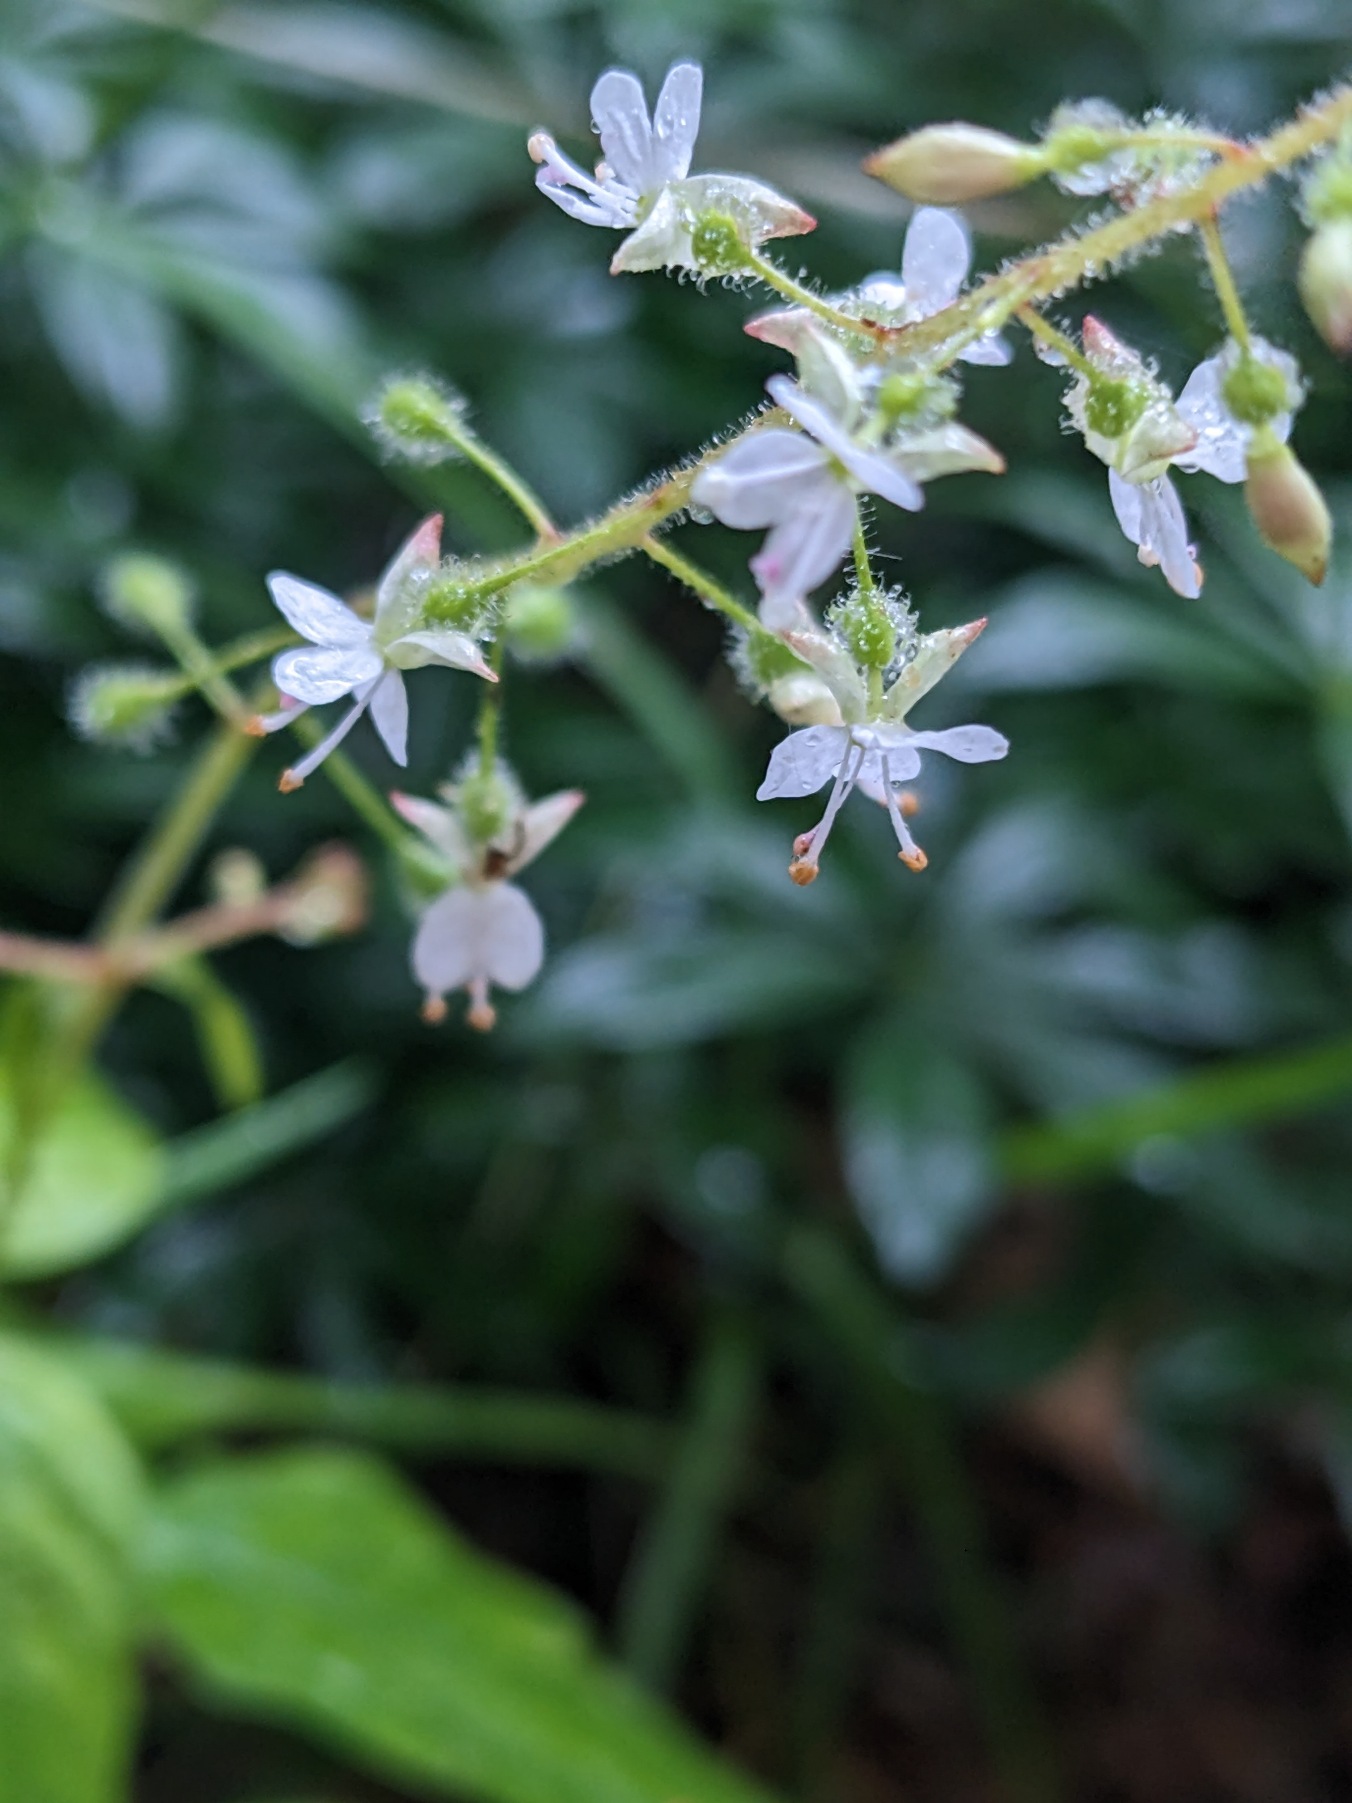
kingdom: Plantae
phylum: Tracheophyta
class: Magnoliopsida
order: Myrtales
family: Onagraceae
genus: Circaea
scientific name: Circaea lutetiana
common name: Dunet steffensurt
